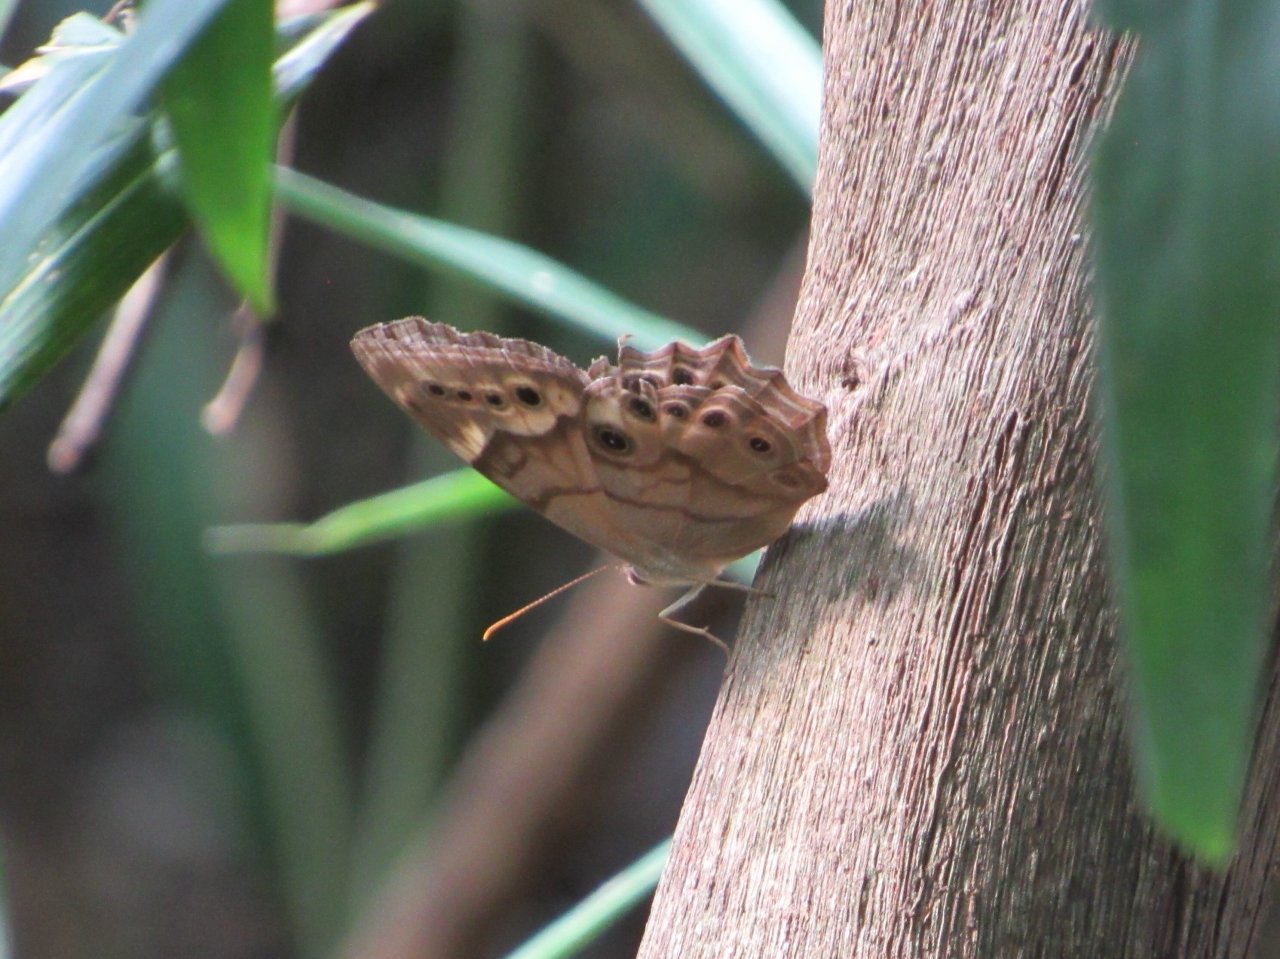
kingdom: Animalia
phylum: Arthropoda
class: Insecta
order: Lepidoptera
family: Nymphalidae
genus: Enodia
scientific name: Enodia portlandia
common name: Southern Pearly Eye
